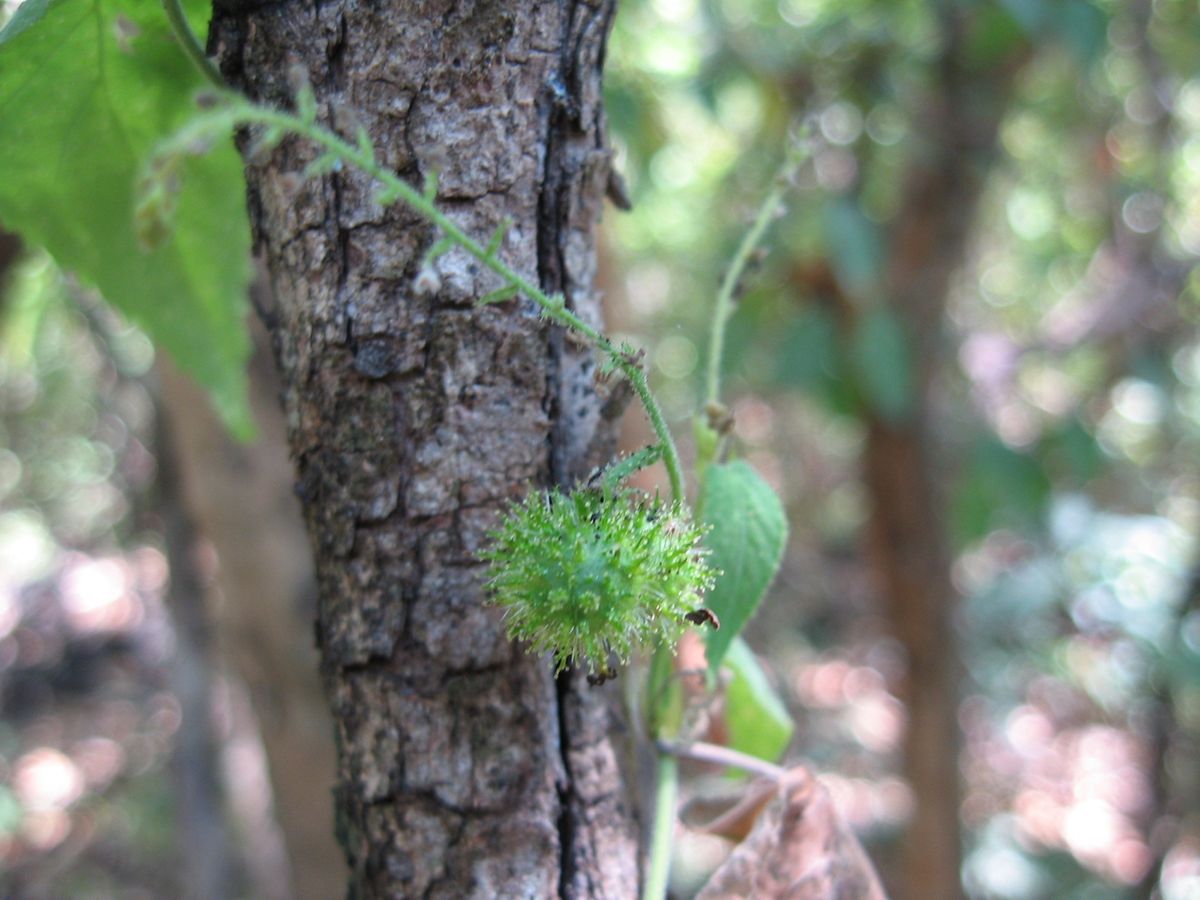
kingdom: Plantae
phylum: Tracheophyta
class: Magnoliopsida
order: Malpighiales
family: Euphorbiaceae
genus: Tragia
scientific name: Tragia volubilis
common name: Twining cow-itch
